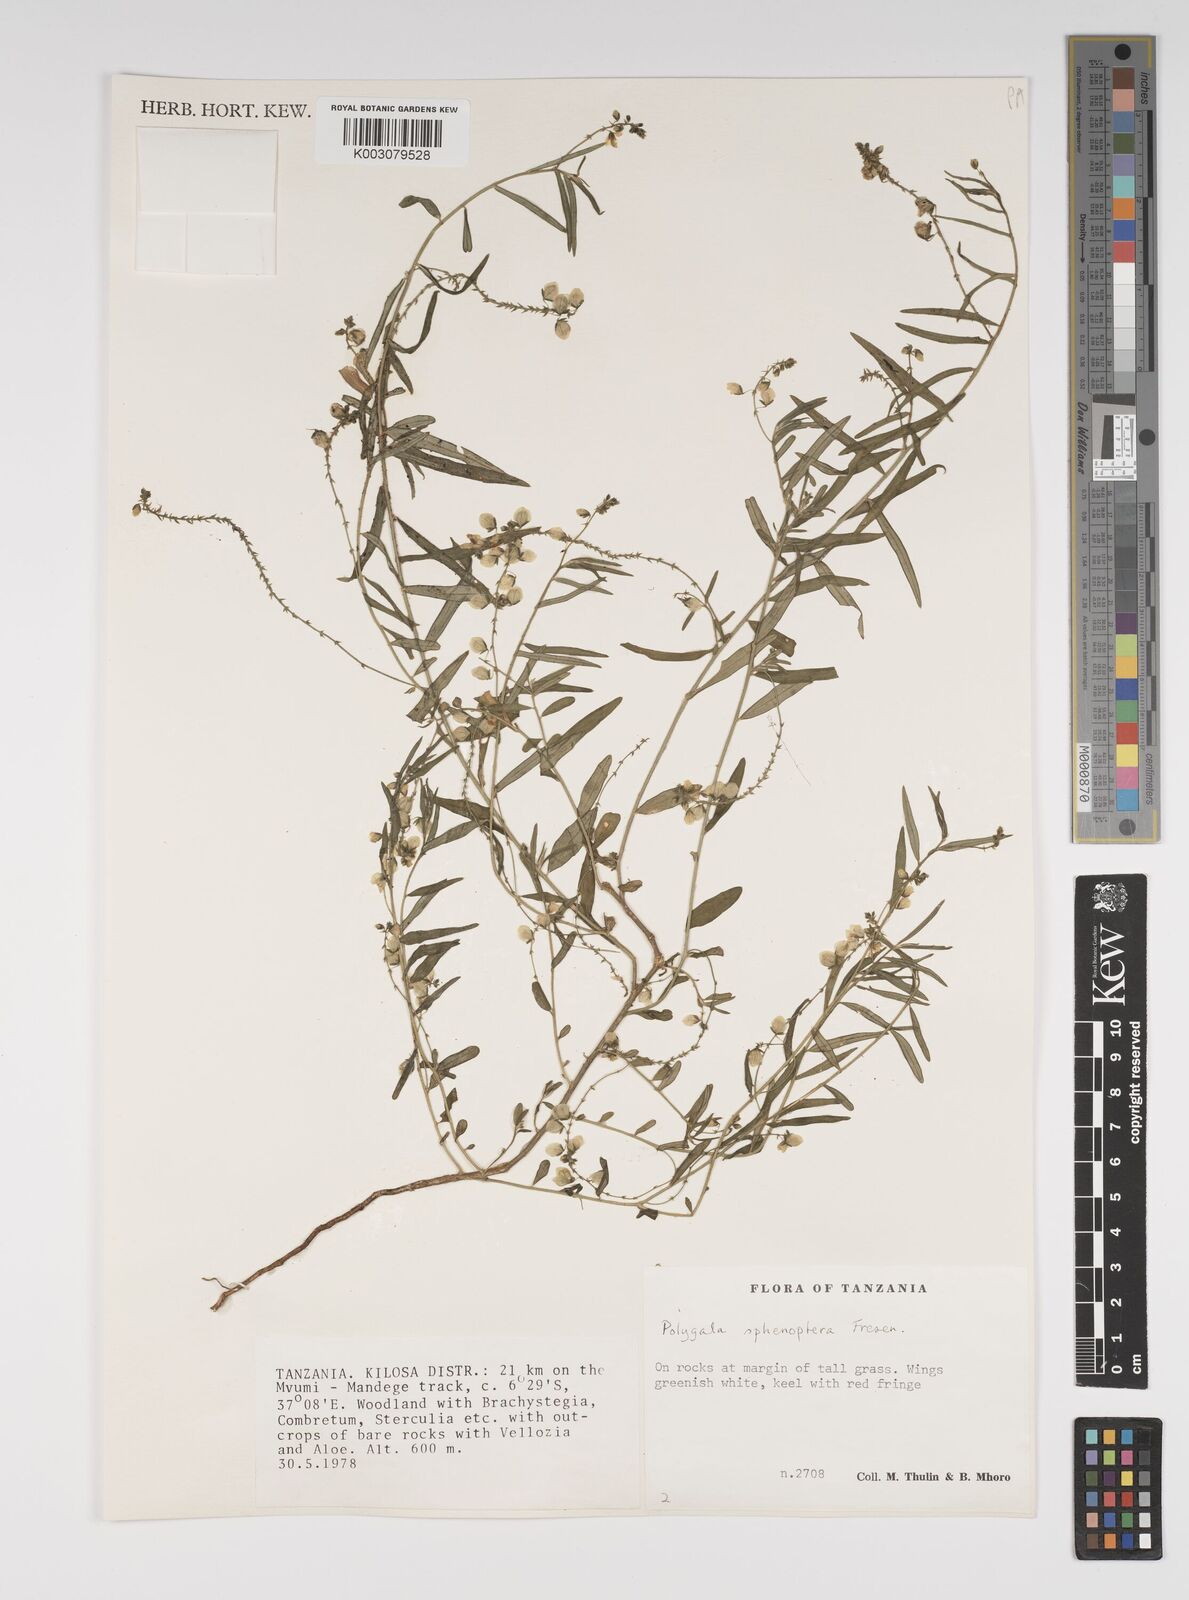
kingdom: Plantae
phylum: Tracheophyta
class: Magnoliopsida
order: Fabales
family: Polygalaceae
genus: Polygala
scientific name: Polygala sphenoptera
